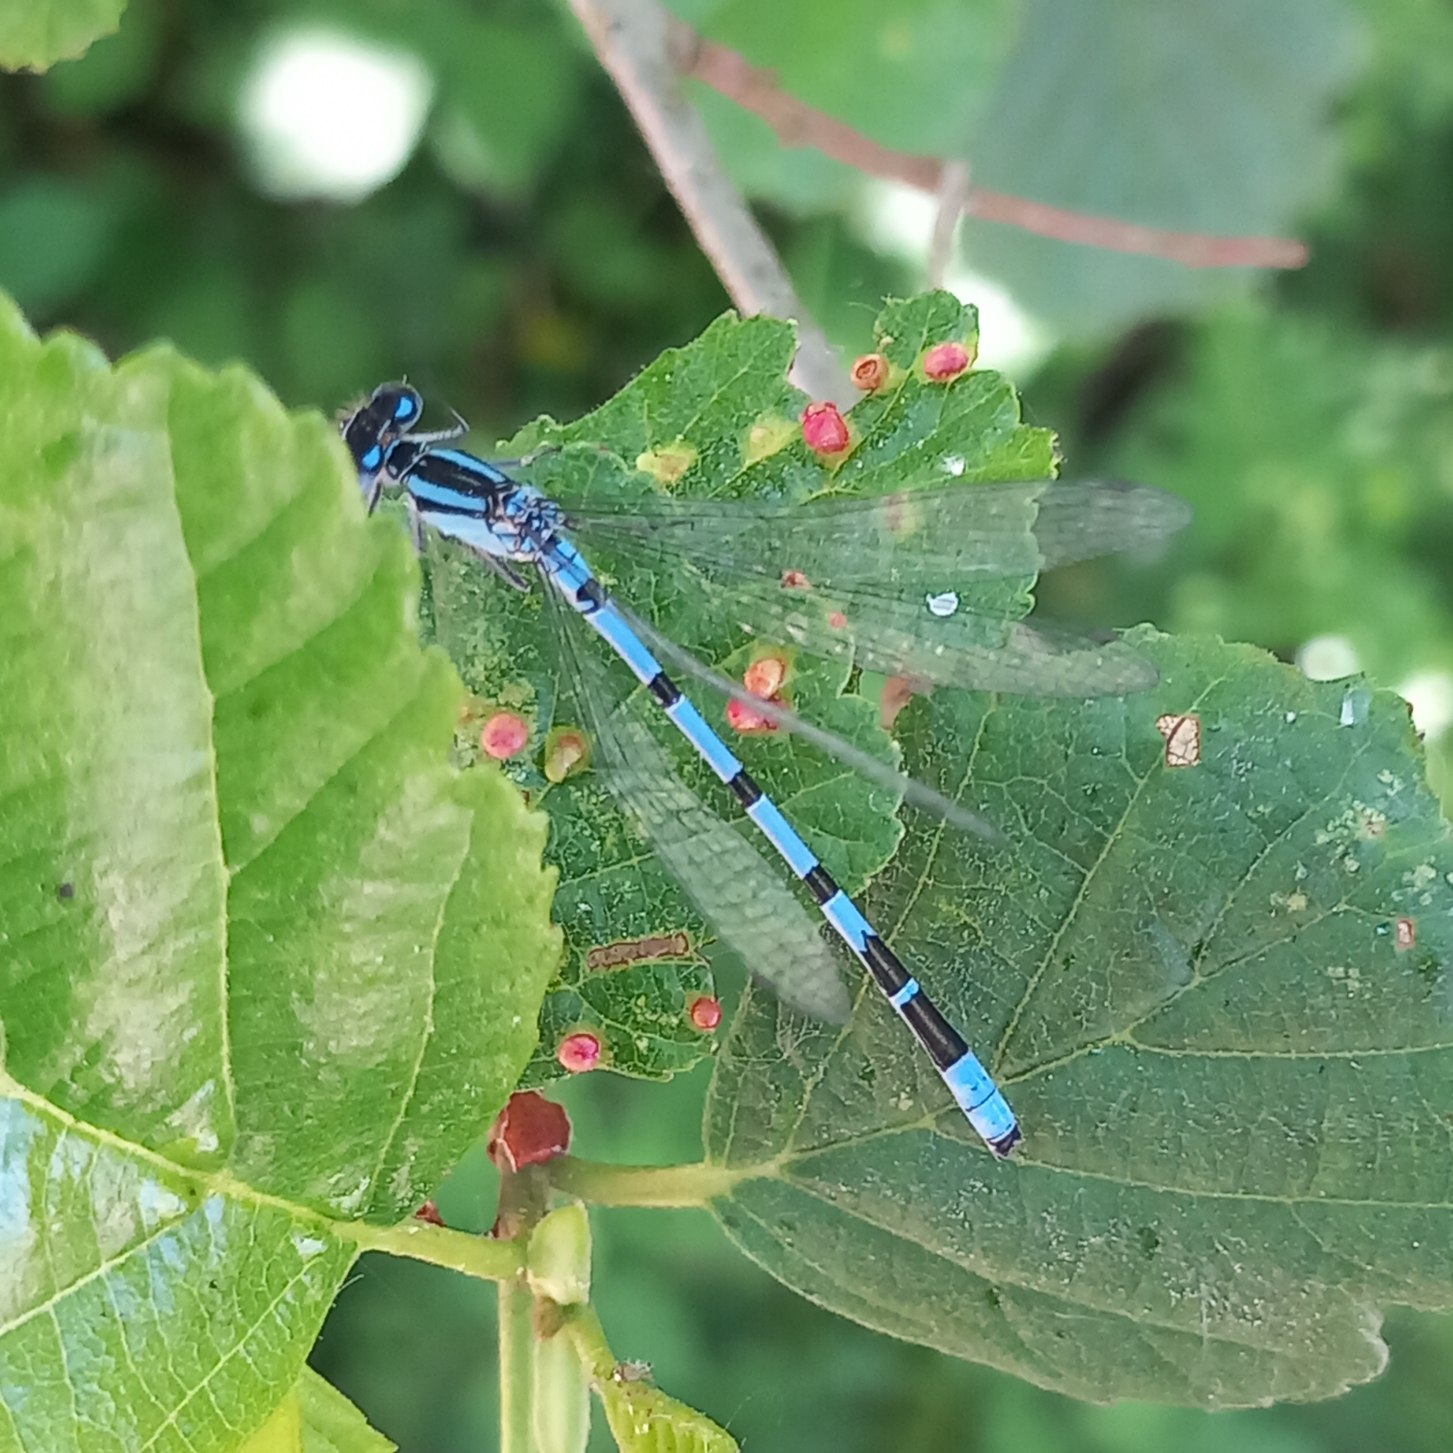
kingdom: Animalia
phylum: Arthropoda
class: Insecta
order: Odonata
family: Coenagrionidae
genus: Enallagma
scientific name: Enallagma cyathigerum
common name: Almindelig vandnymfe
